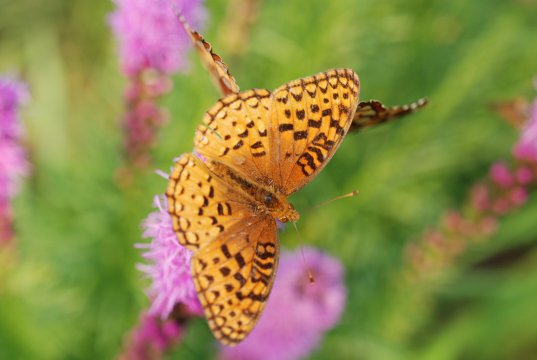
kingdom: Animalia
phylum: Arthropoda
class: Insecta
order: Lepidoptera
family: Nymphalidae
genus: Speyeria
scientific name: Speyeria aphrodite
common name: Aphrodite Fritillary
